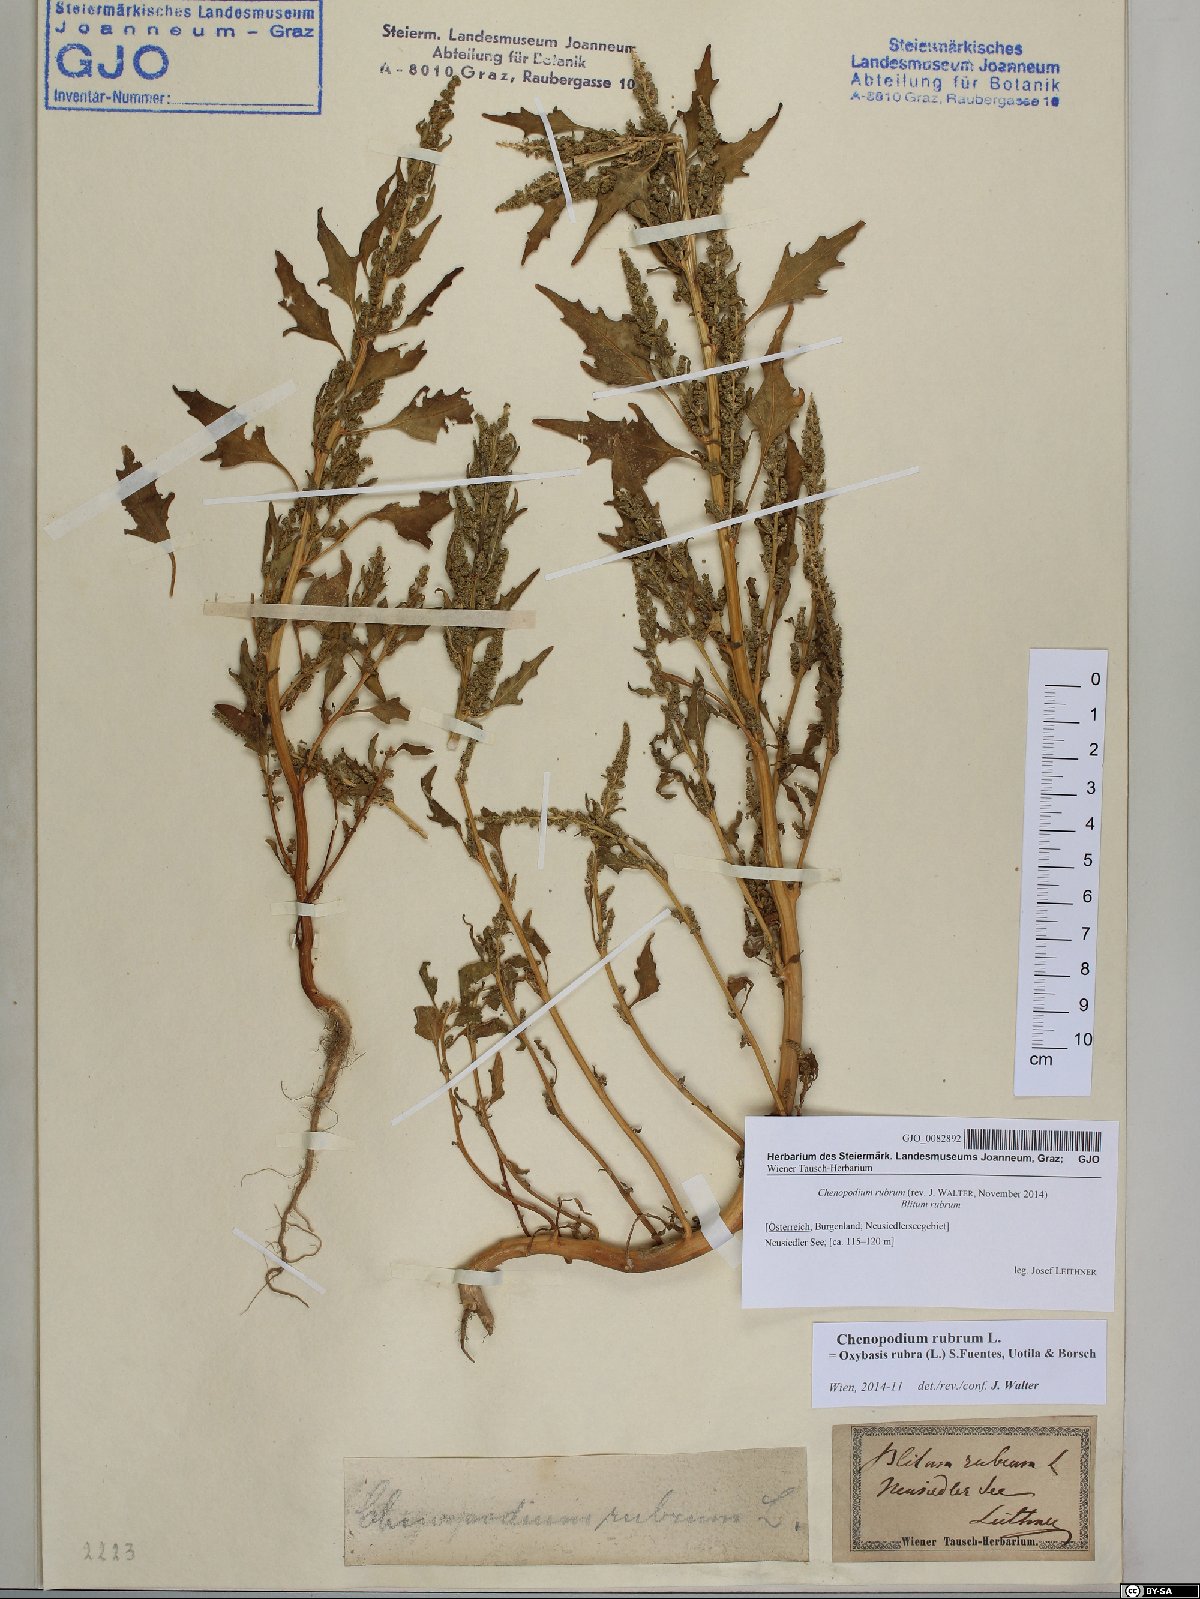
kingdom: Plantae
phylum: Tracheophyta
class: Magnoliopsida
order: Caryophyllales
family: Amaranthaceae
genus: Oxybasis
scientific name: Oxybasis rubra
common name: Red goosefoot
